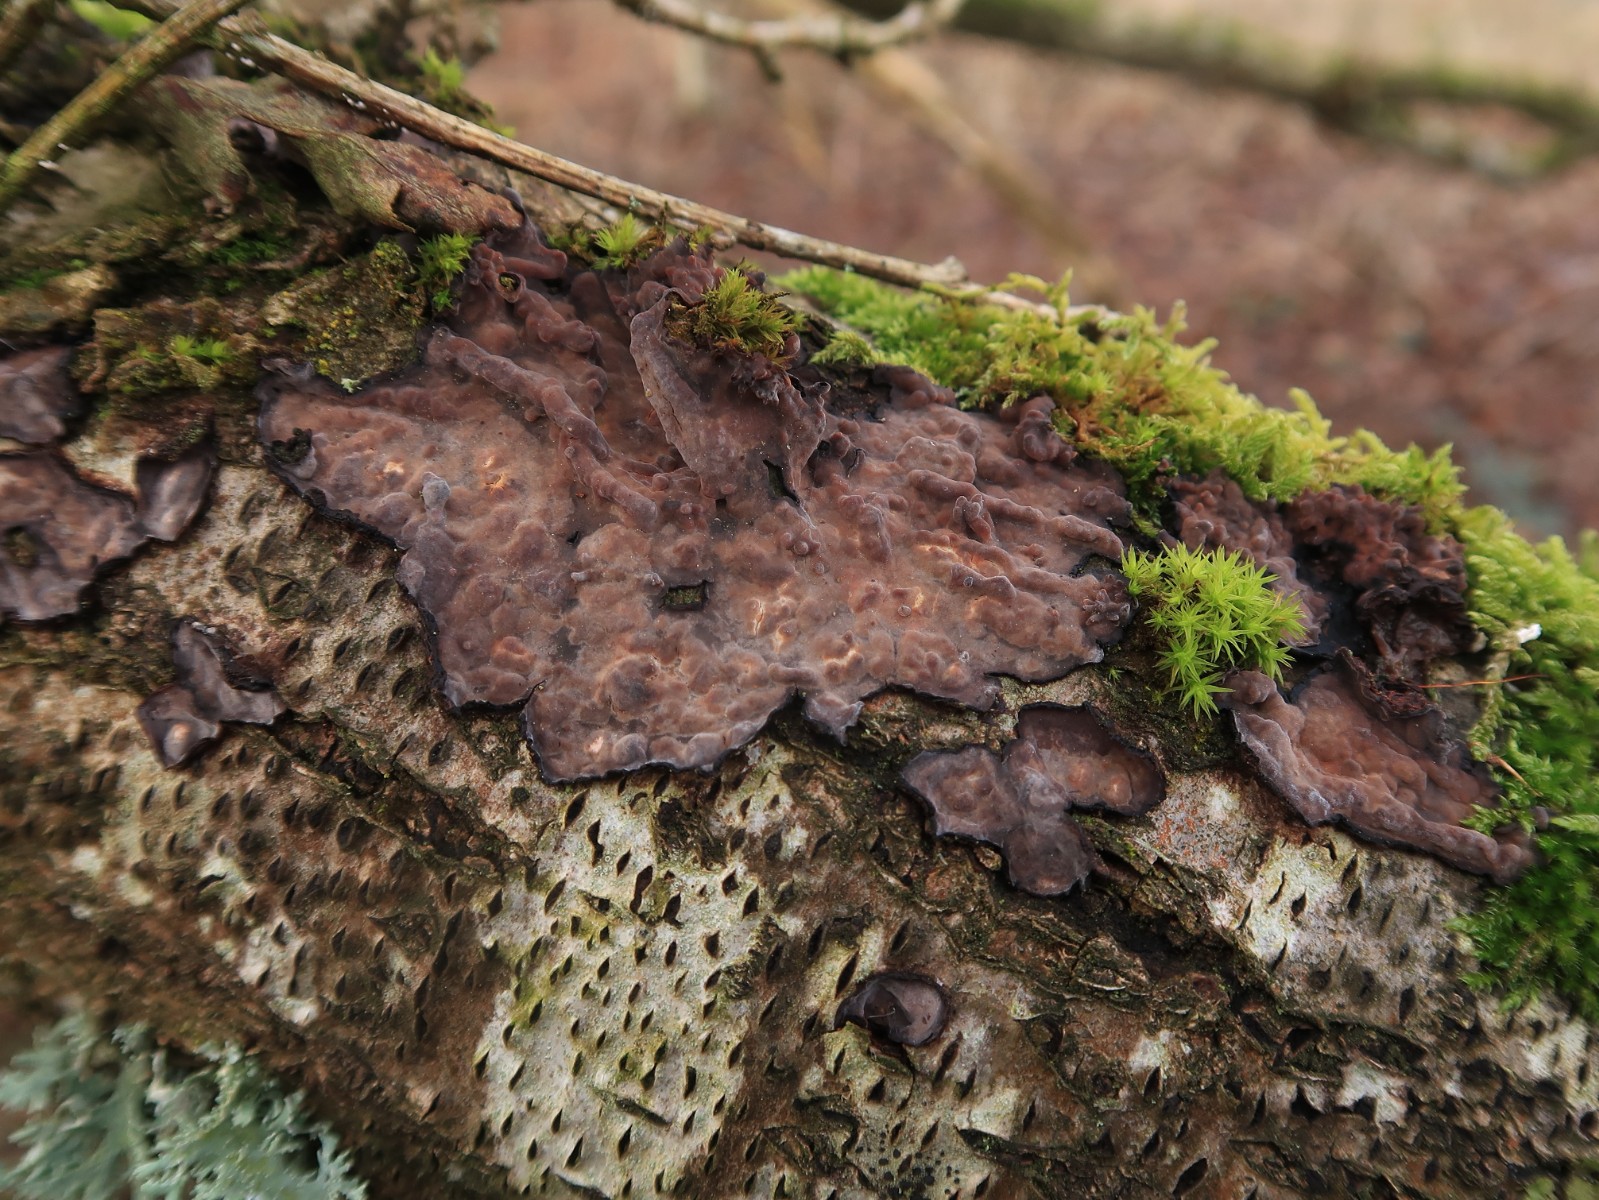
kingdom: Fungi
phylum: Basidiomycota
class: Agaricomycetes
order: Russulales
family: Peniophoraceae
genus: Peniophora
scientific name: Peniophora quercina
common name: ege-voksskind
